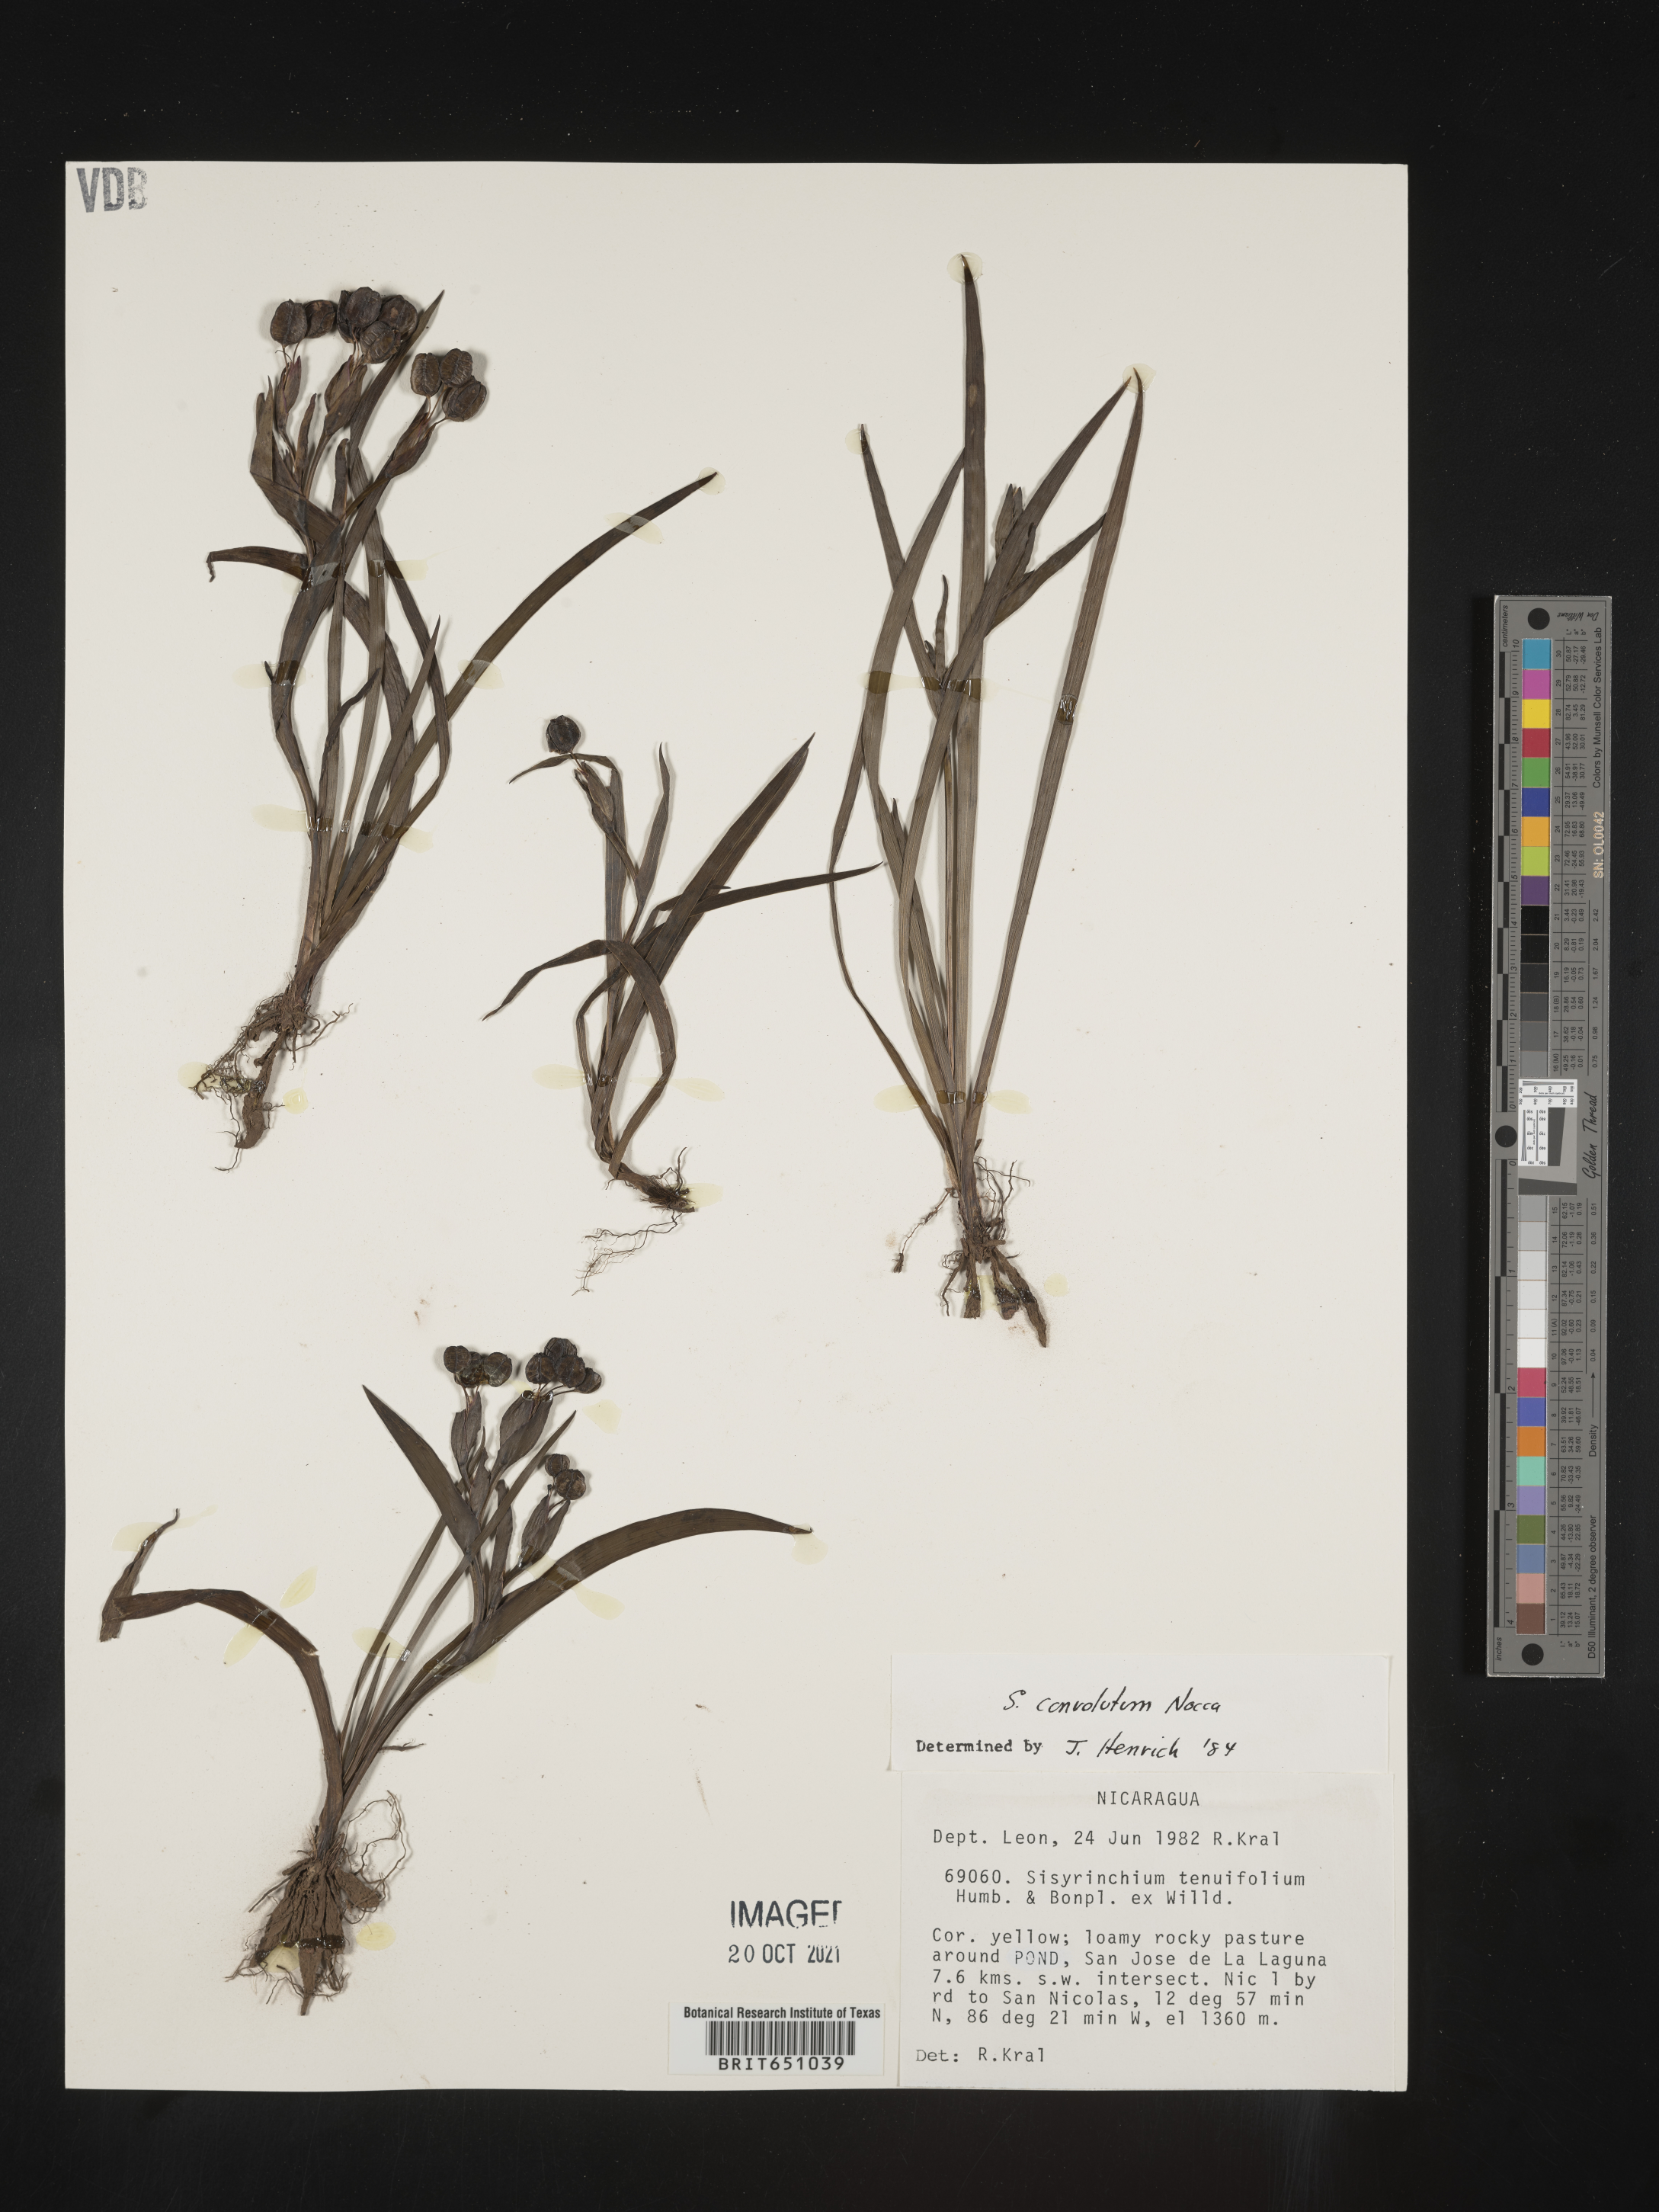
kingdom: Plantae
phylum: Tracheophyta
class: Liliopsida
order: Asparagales
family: Iridaceae
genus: Sisyrinchium
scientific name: Sisyrinchium
